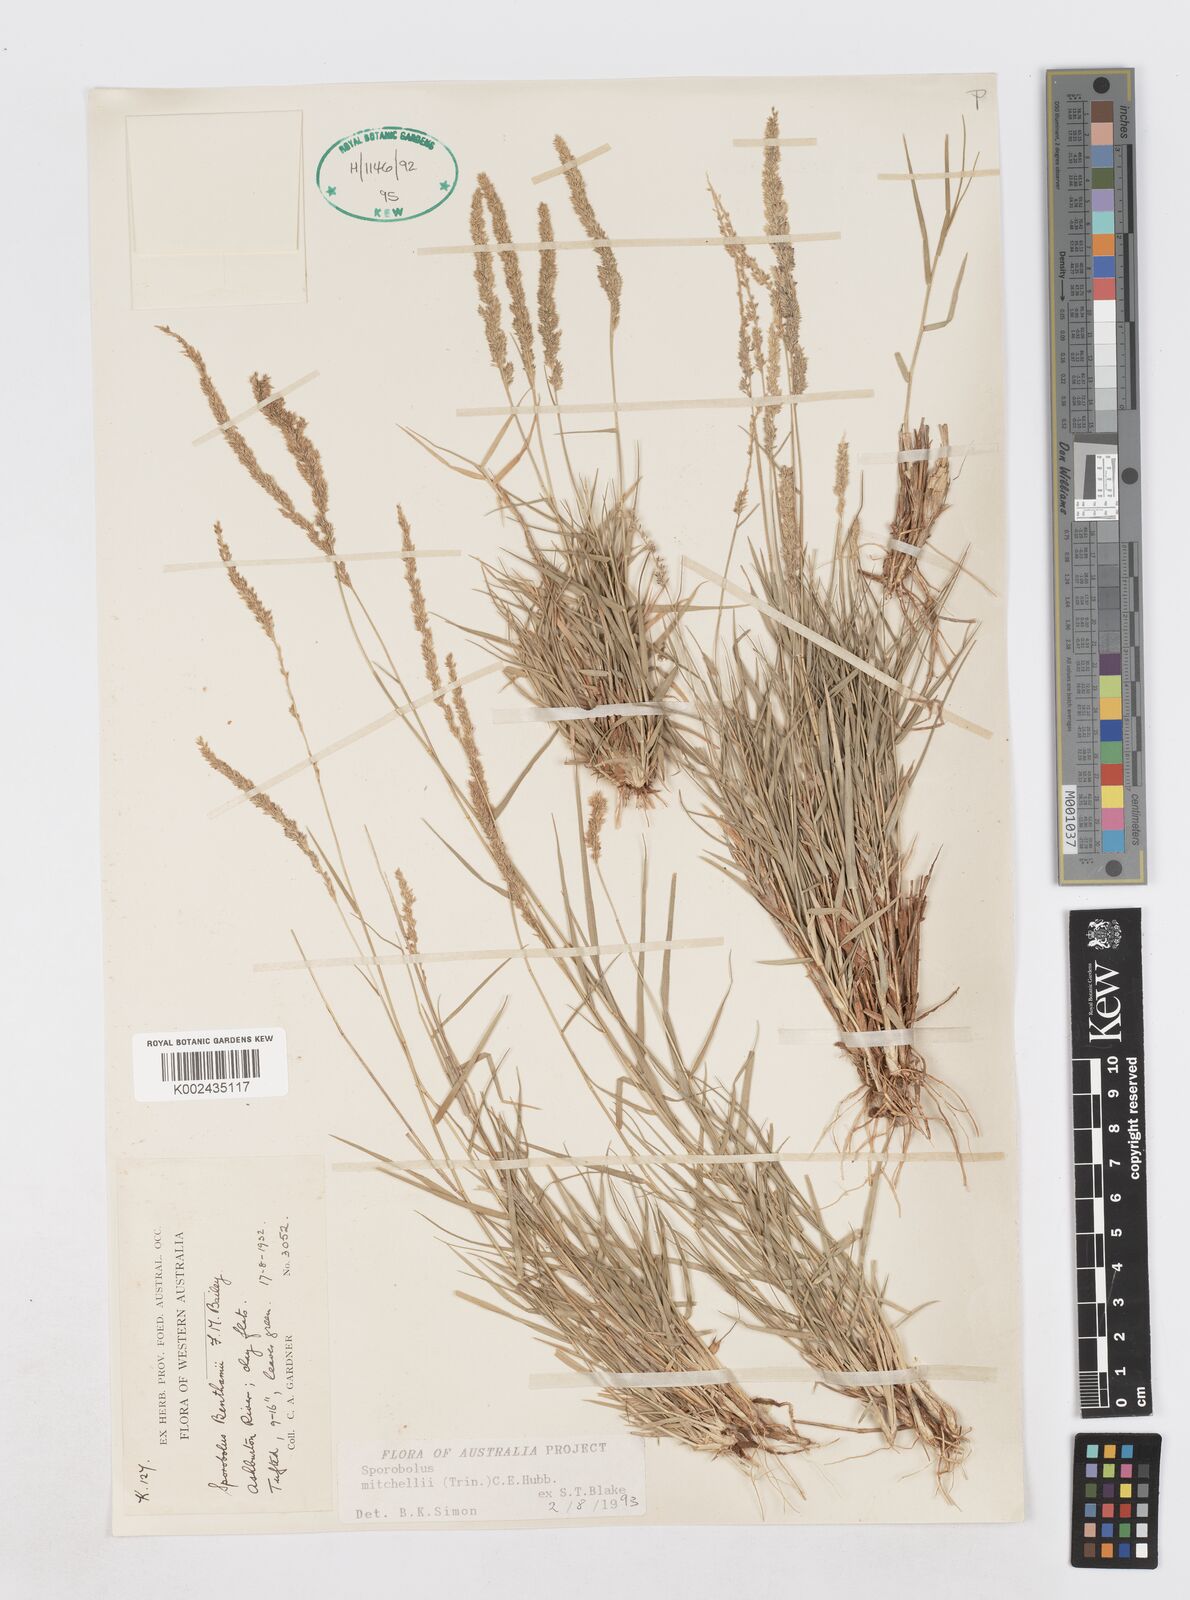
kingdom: Plantae
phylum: Tracheophyta
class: Liliopsida
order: Poales
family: Poaceae
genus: Sporobolus
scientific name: Sporobolus mitchellii
